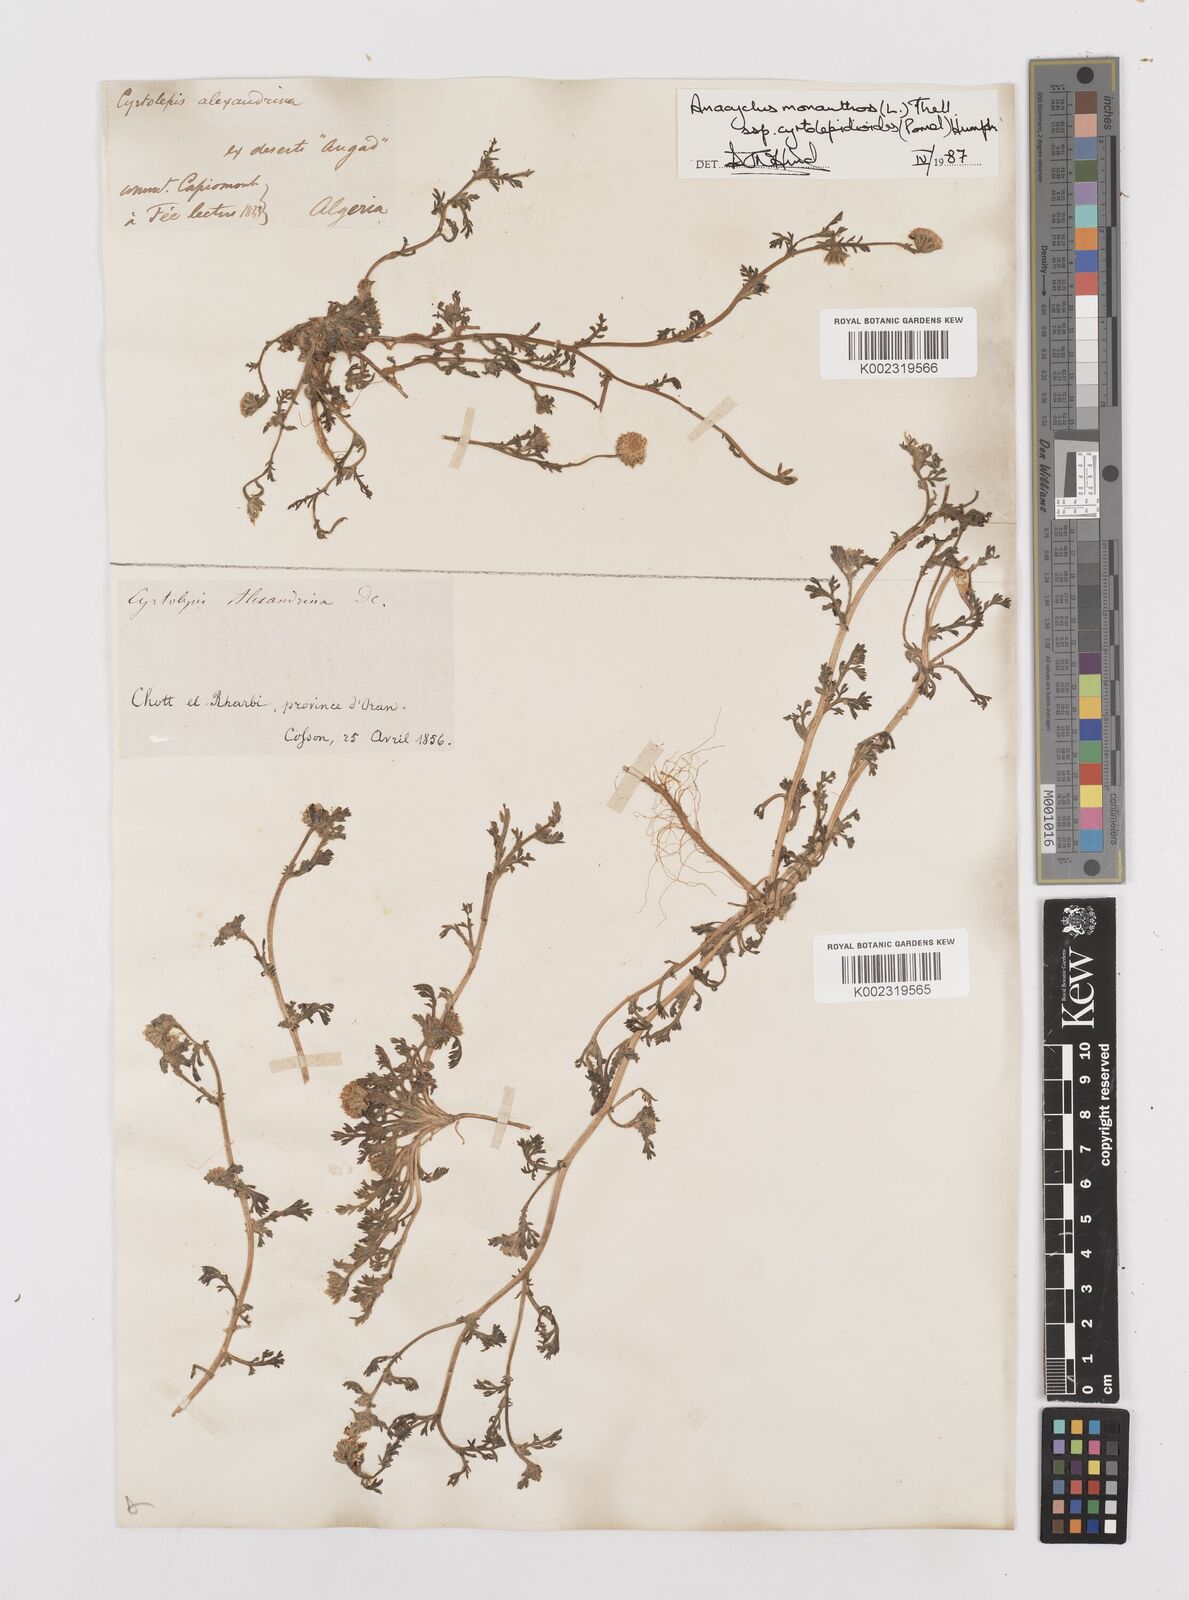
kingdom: Plantae
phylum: Tracheophyta
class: Magnoliopsida
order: Asterales
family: Asteraceae
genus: Anacyclus
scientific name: Anacyclus monanthos
